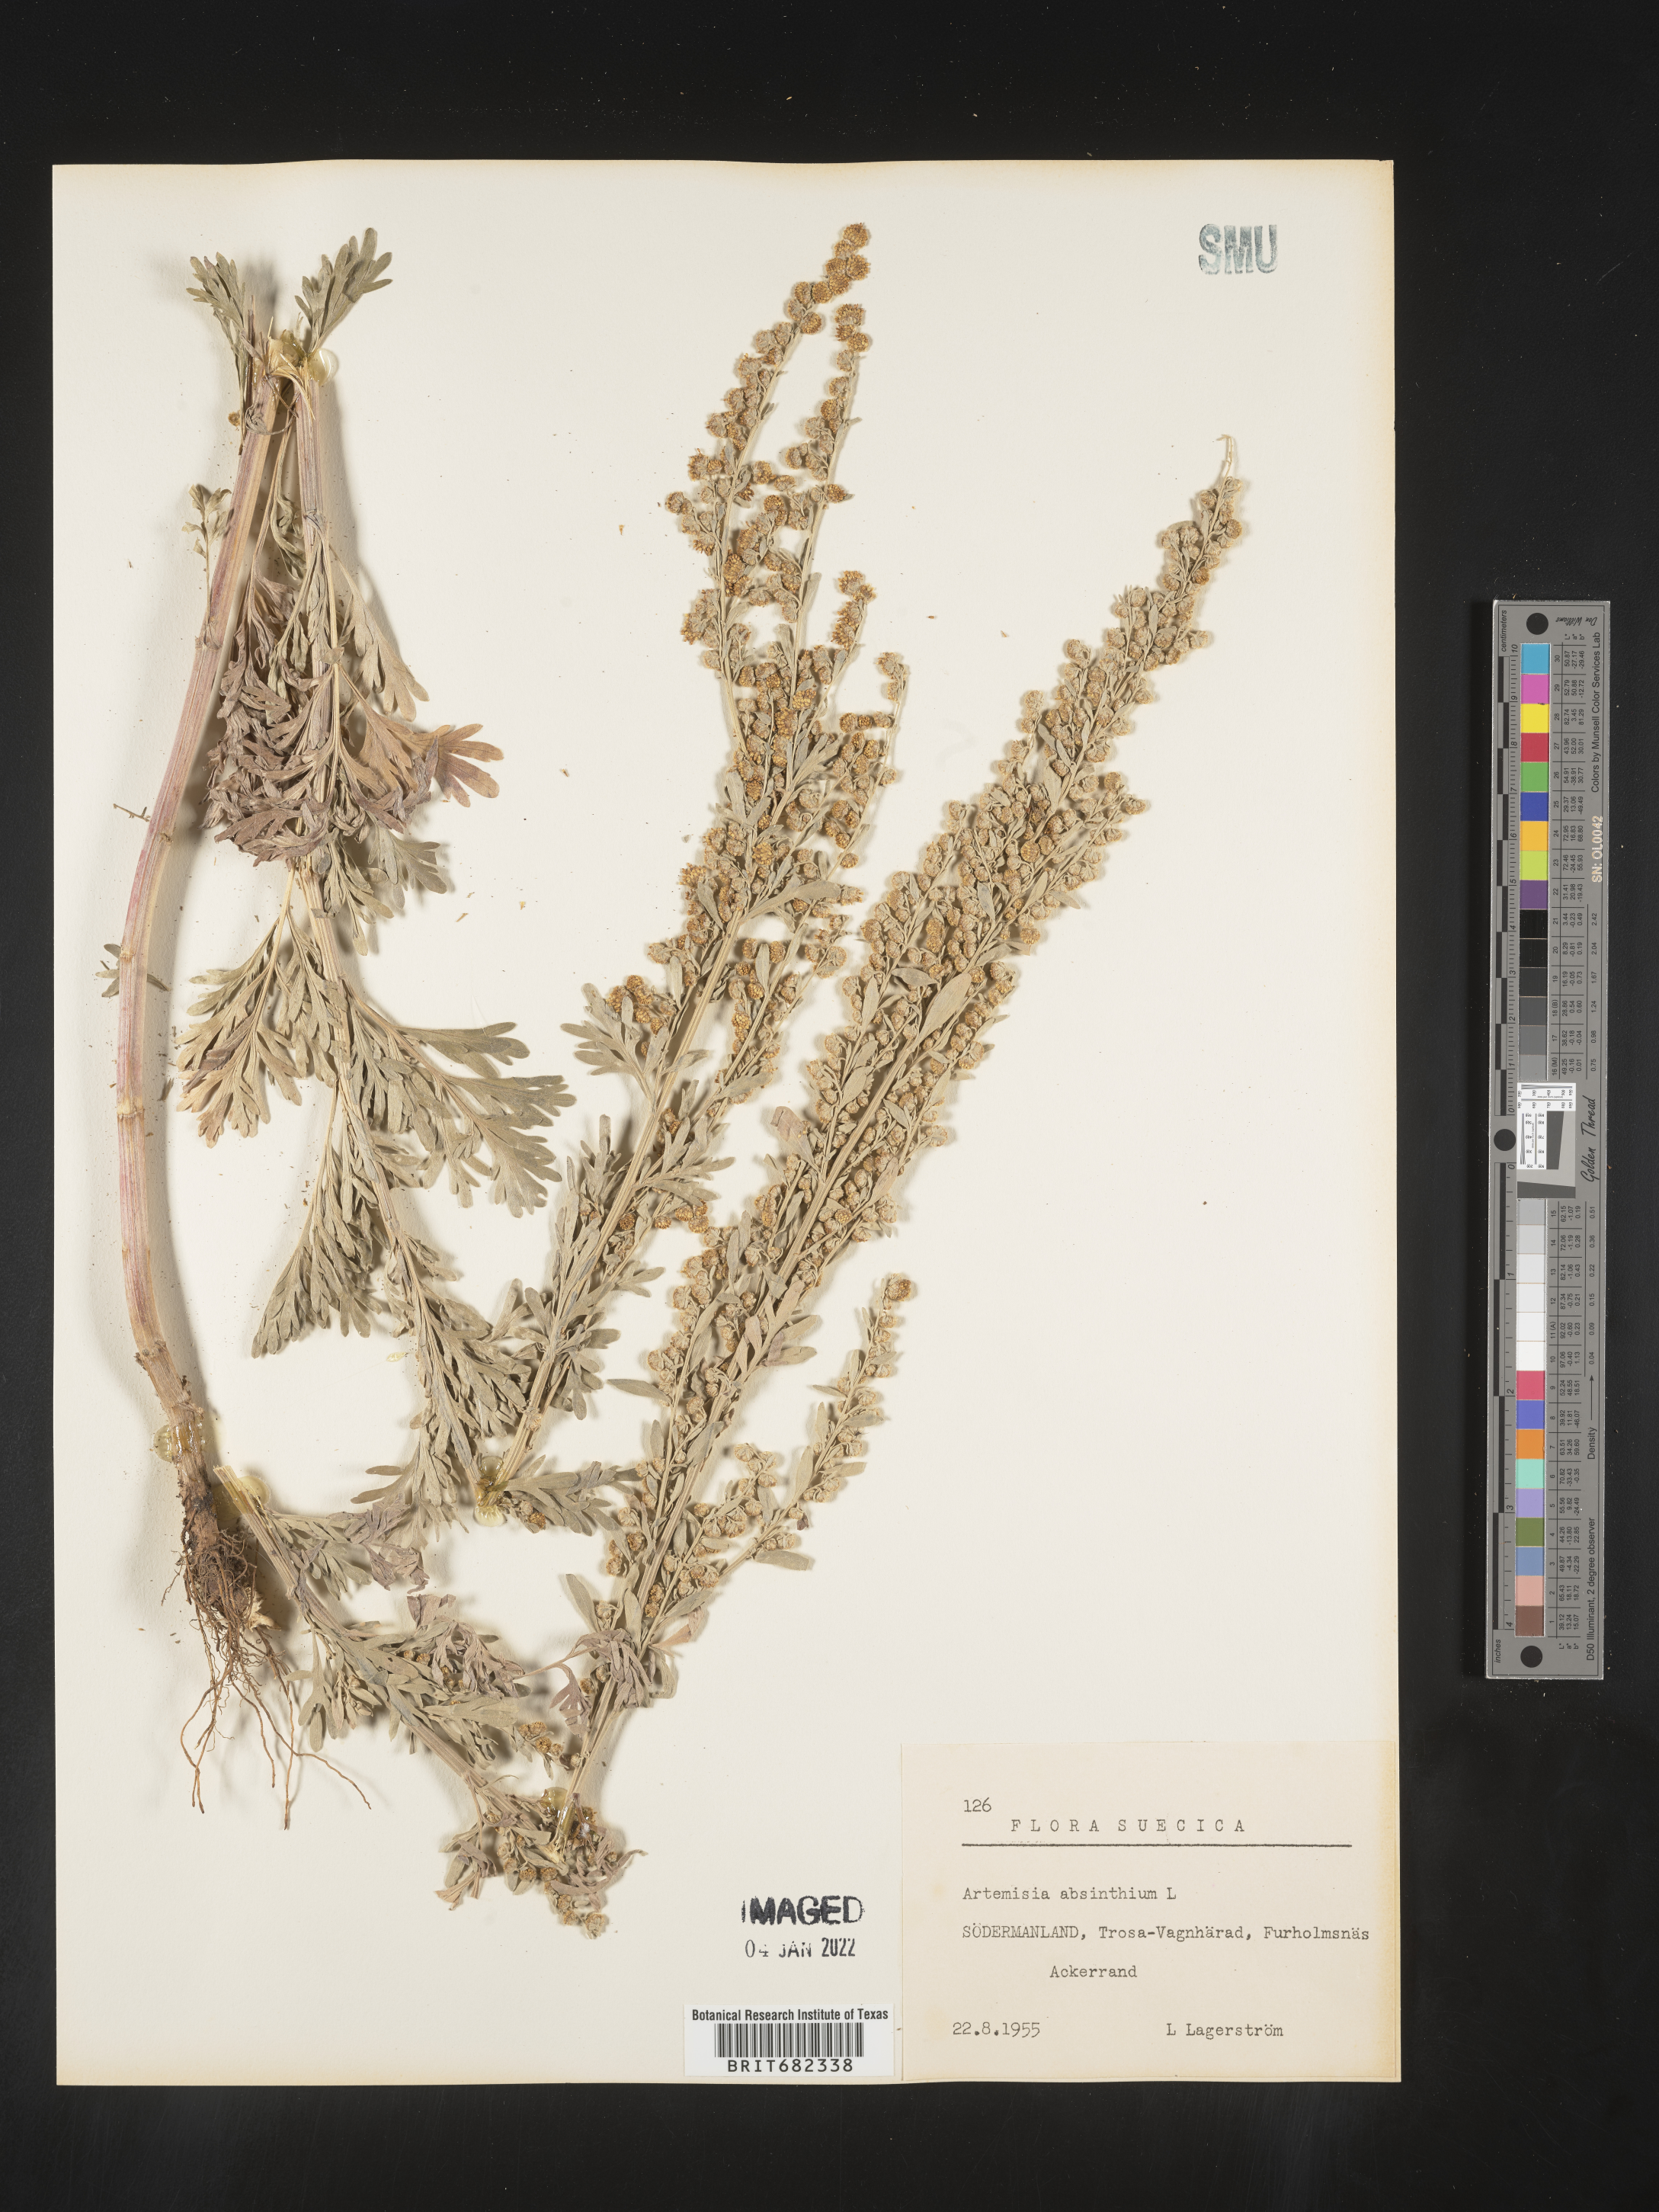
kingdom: Plantae
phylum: Tracheophyta
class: Magnoliopsida
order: Asterales
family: Asteraceae
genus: Artemisia
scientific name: Artemisia
